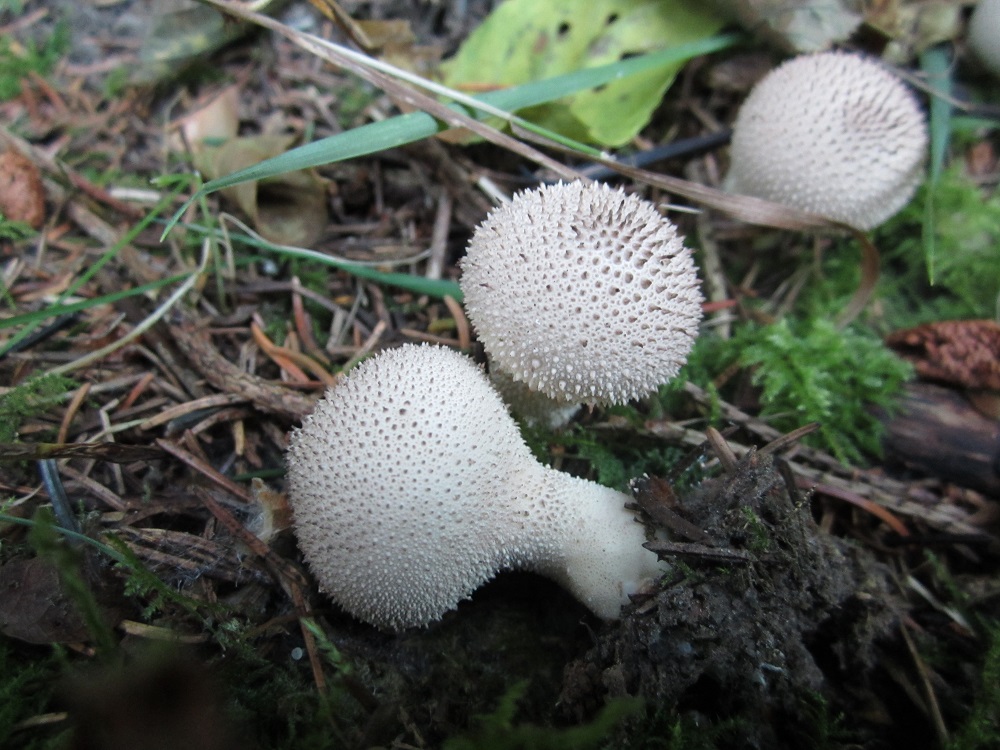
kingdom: Fungi
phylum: Basidiomycota
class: Agaricomycetes
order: Agaricales
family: Lycoperdaceae
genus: Lycoperdon
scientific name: Lycoperdon perlatum
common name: krystal-støvbold
